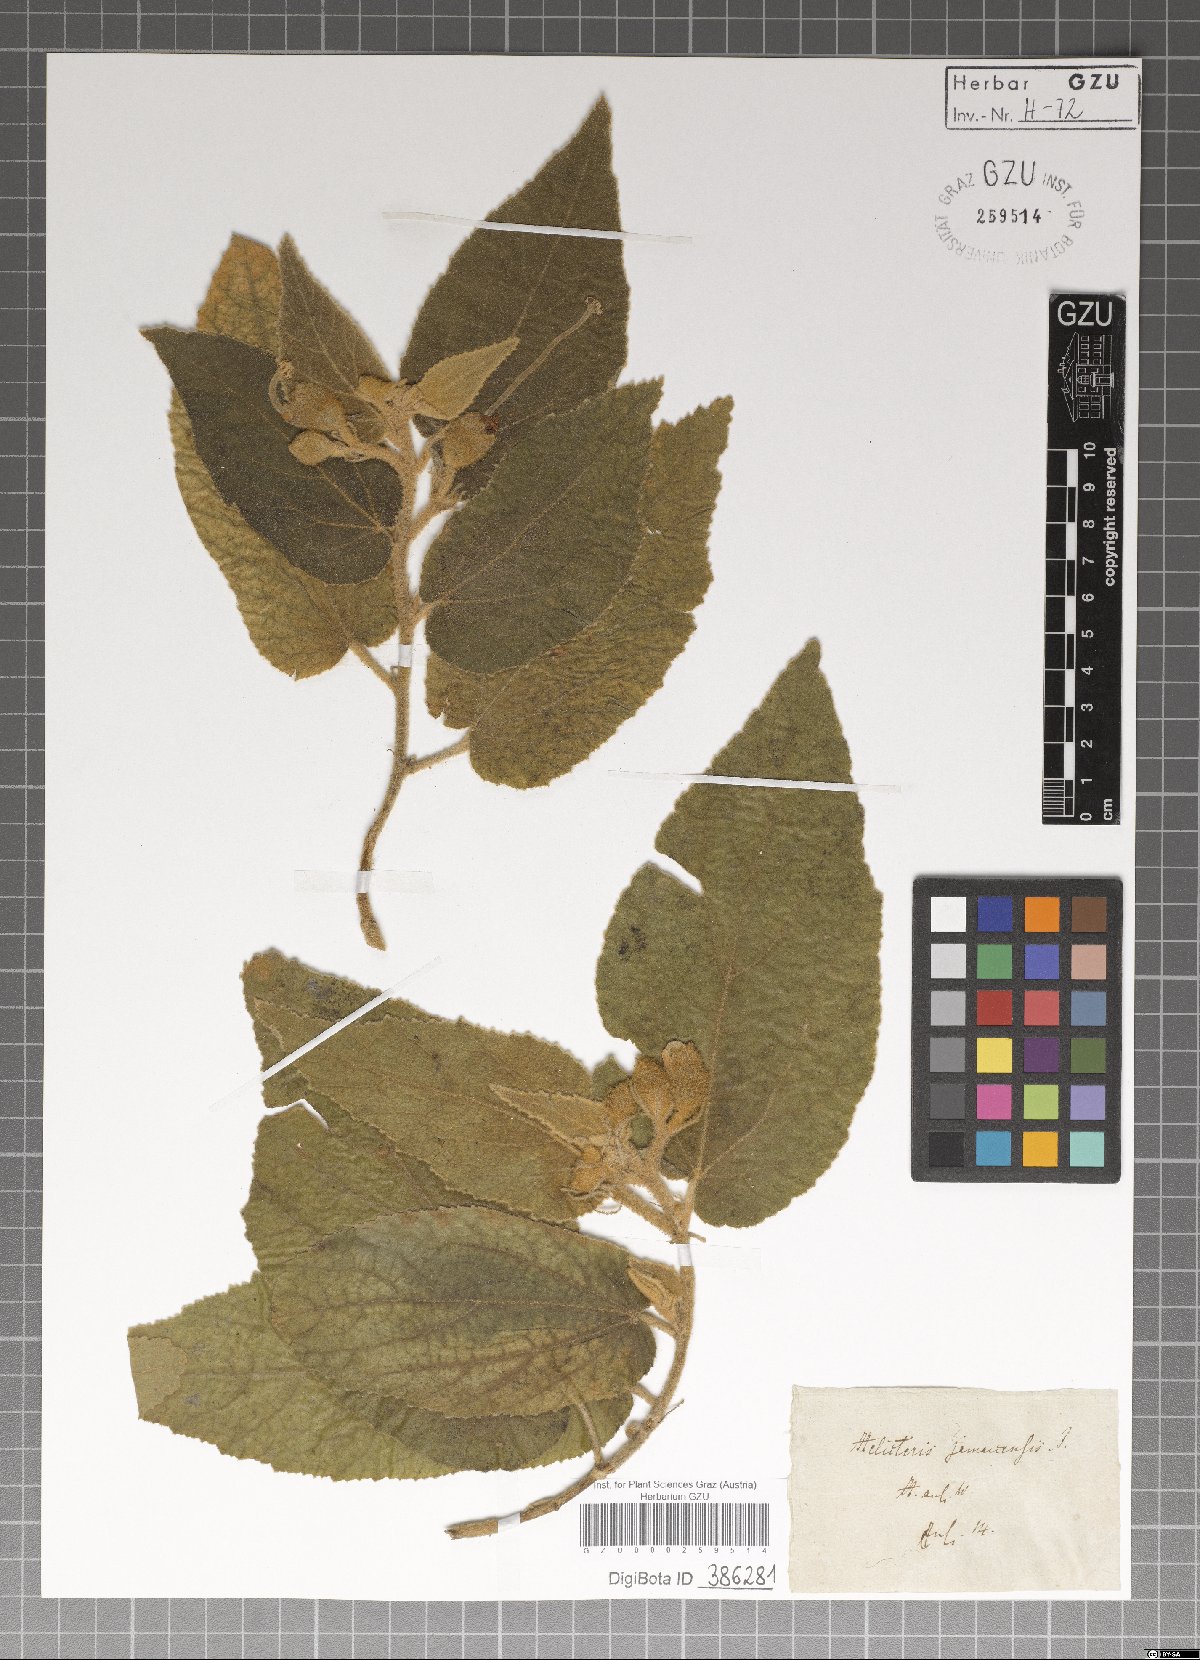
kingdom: Plantae
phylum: Tracheophyta
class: Magnoliopsida
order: Malvales
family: Malvaceae
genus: Helicteres
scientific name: Helicteres jamaicensis
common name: Cowbush
